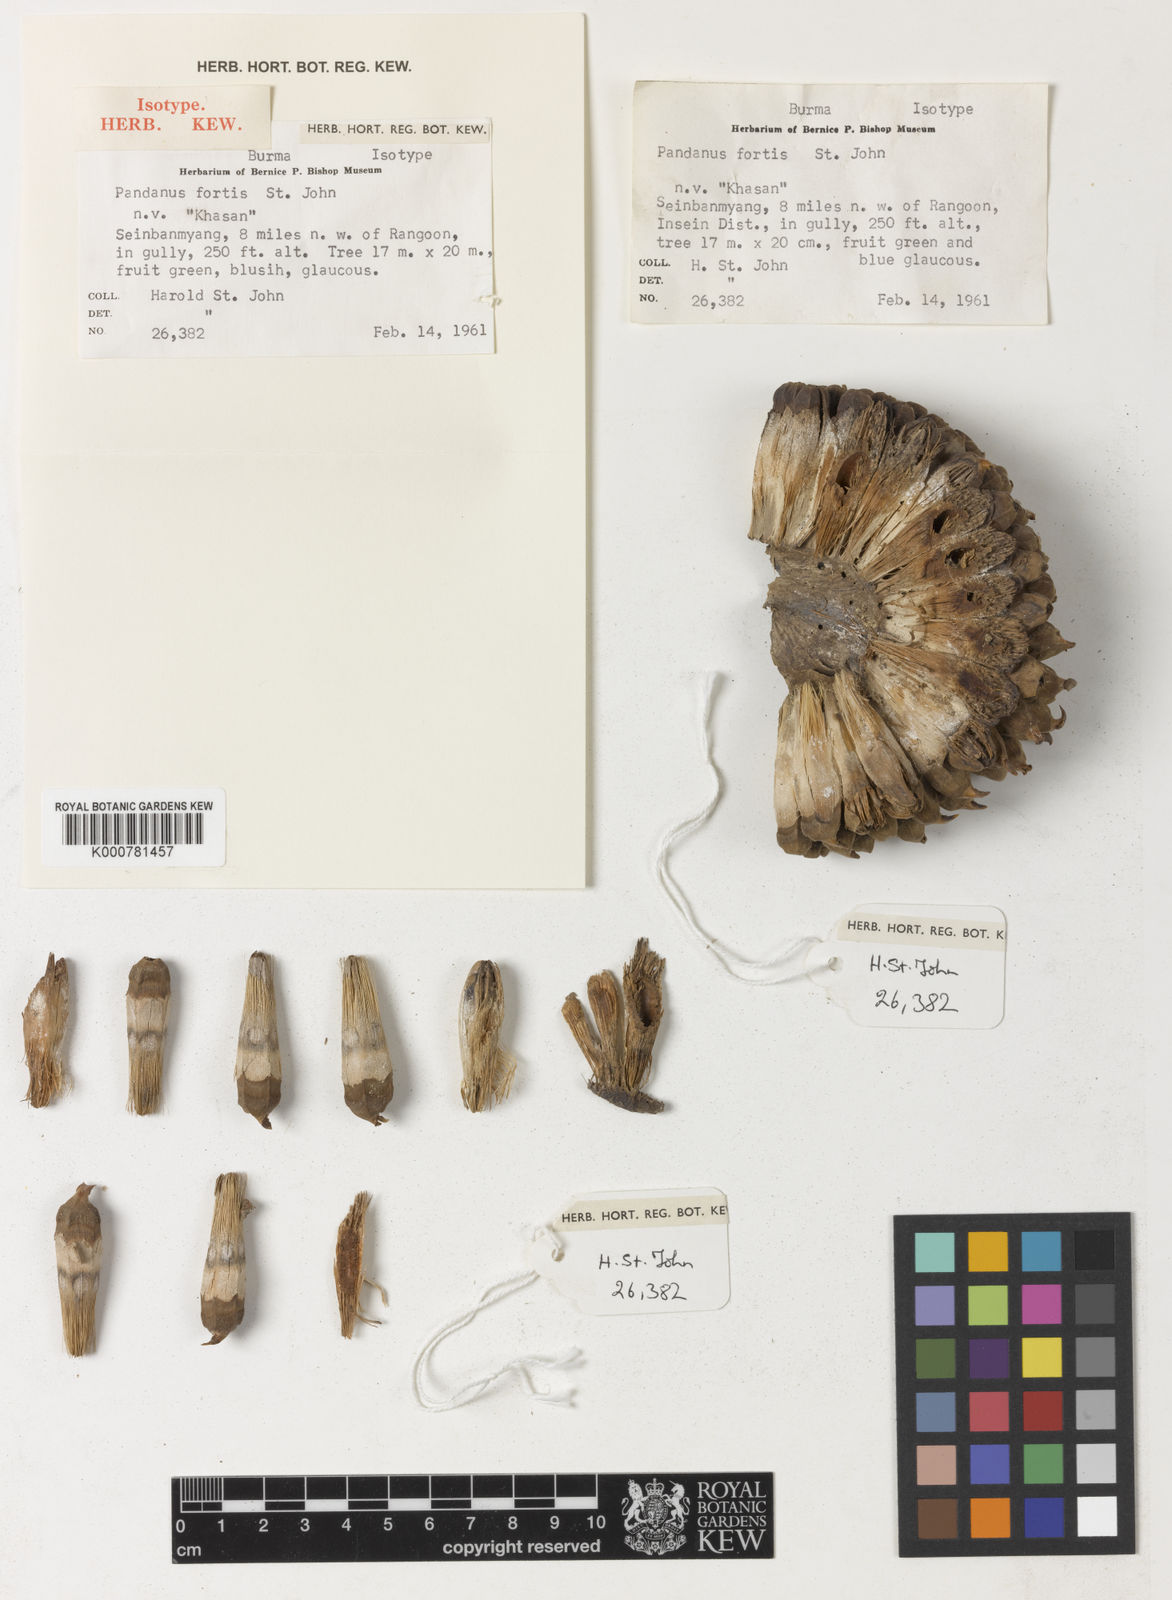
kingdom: Plantae
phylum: Tracheophyta
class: Liliopsida
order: Pandanales
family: Pandanaceae
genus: Pandanus
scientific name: Pandanus
